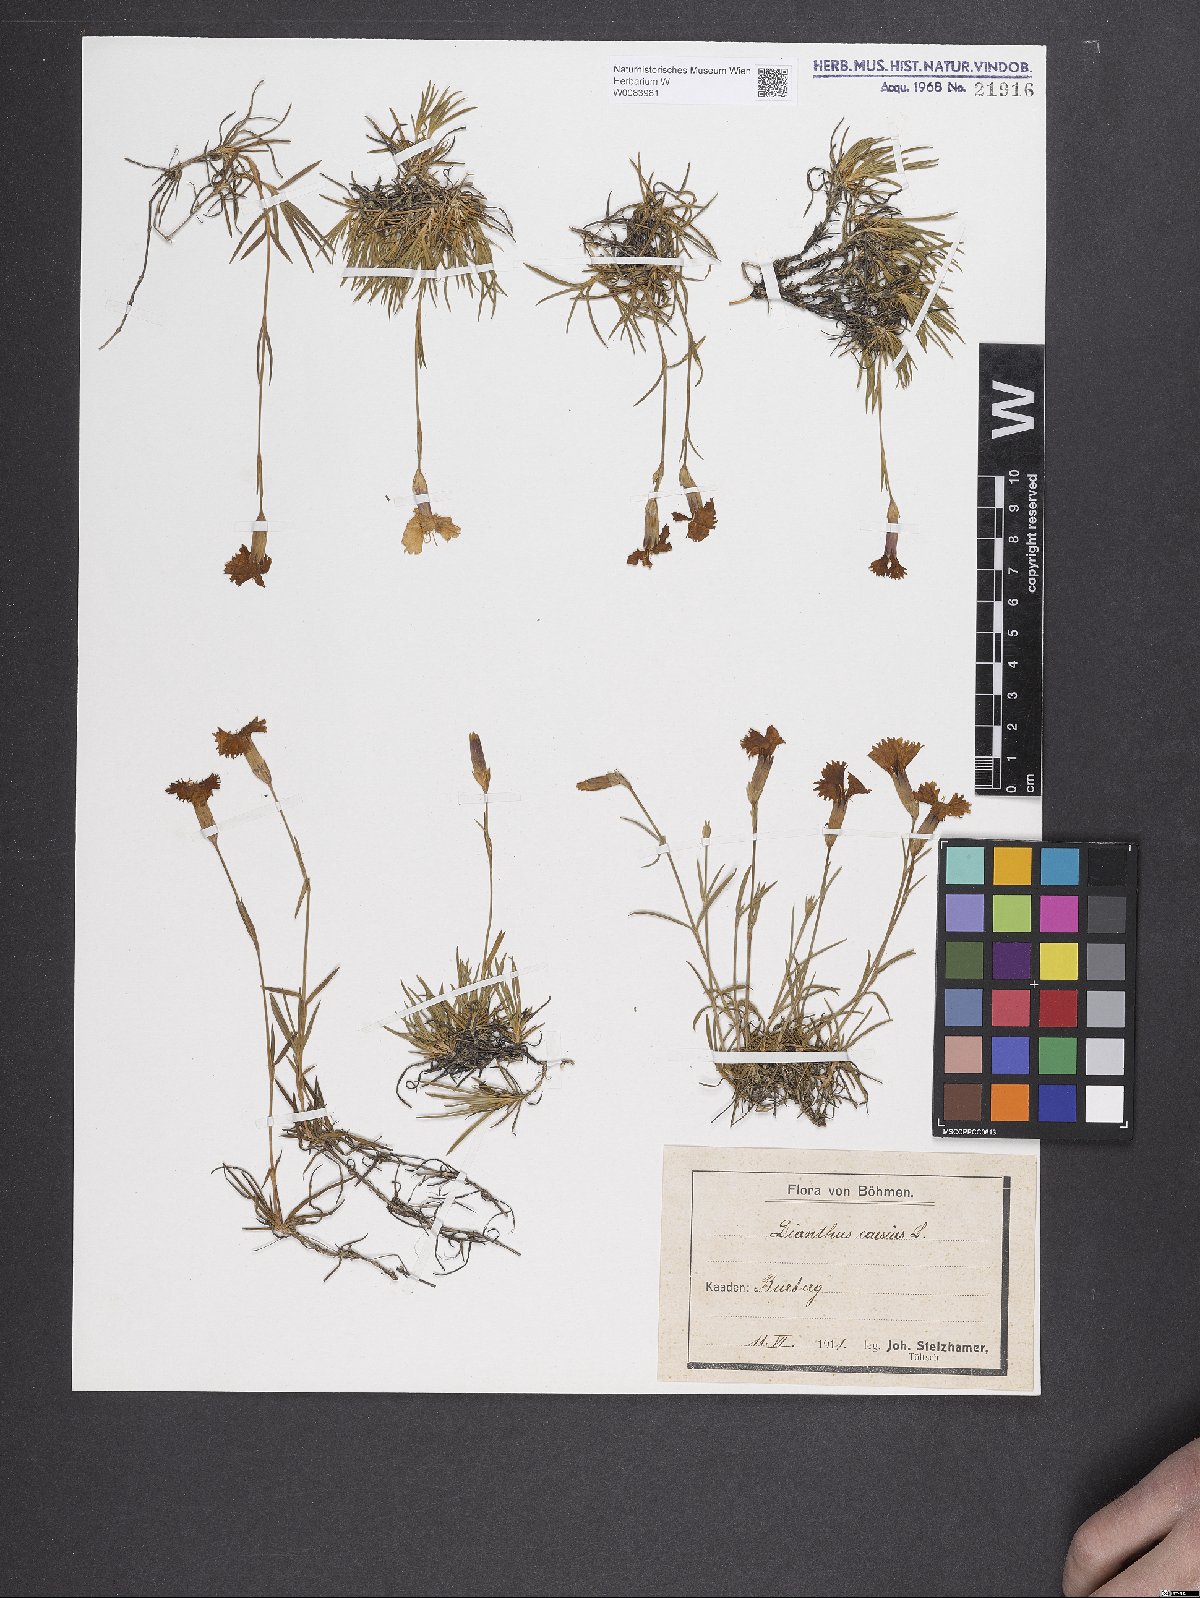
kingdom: Plantae
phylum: Tracheophyta
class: Magnoliopsida
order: Caryophyllales
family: Caryophyllaceae
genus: Dianthus
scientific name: Dianthus gratianopolitanus
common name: Cheddar pink
